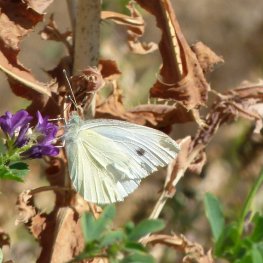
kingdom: Animalia
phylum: Arthropoda
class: Insecta
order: Lepidoptera
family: Pieridae
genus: Pieris
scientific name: Pieris rapae
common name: Cabbage White
